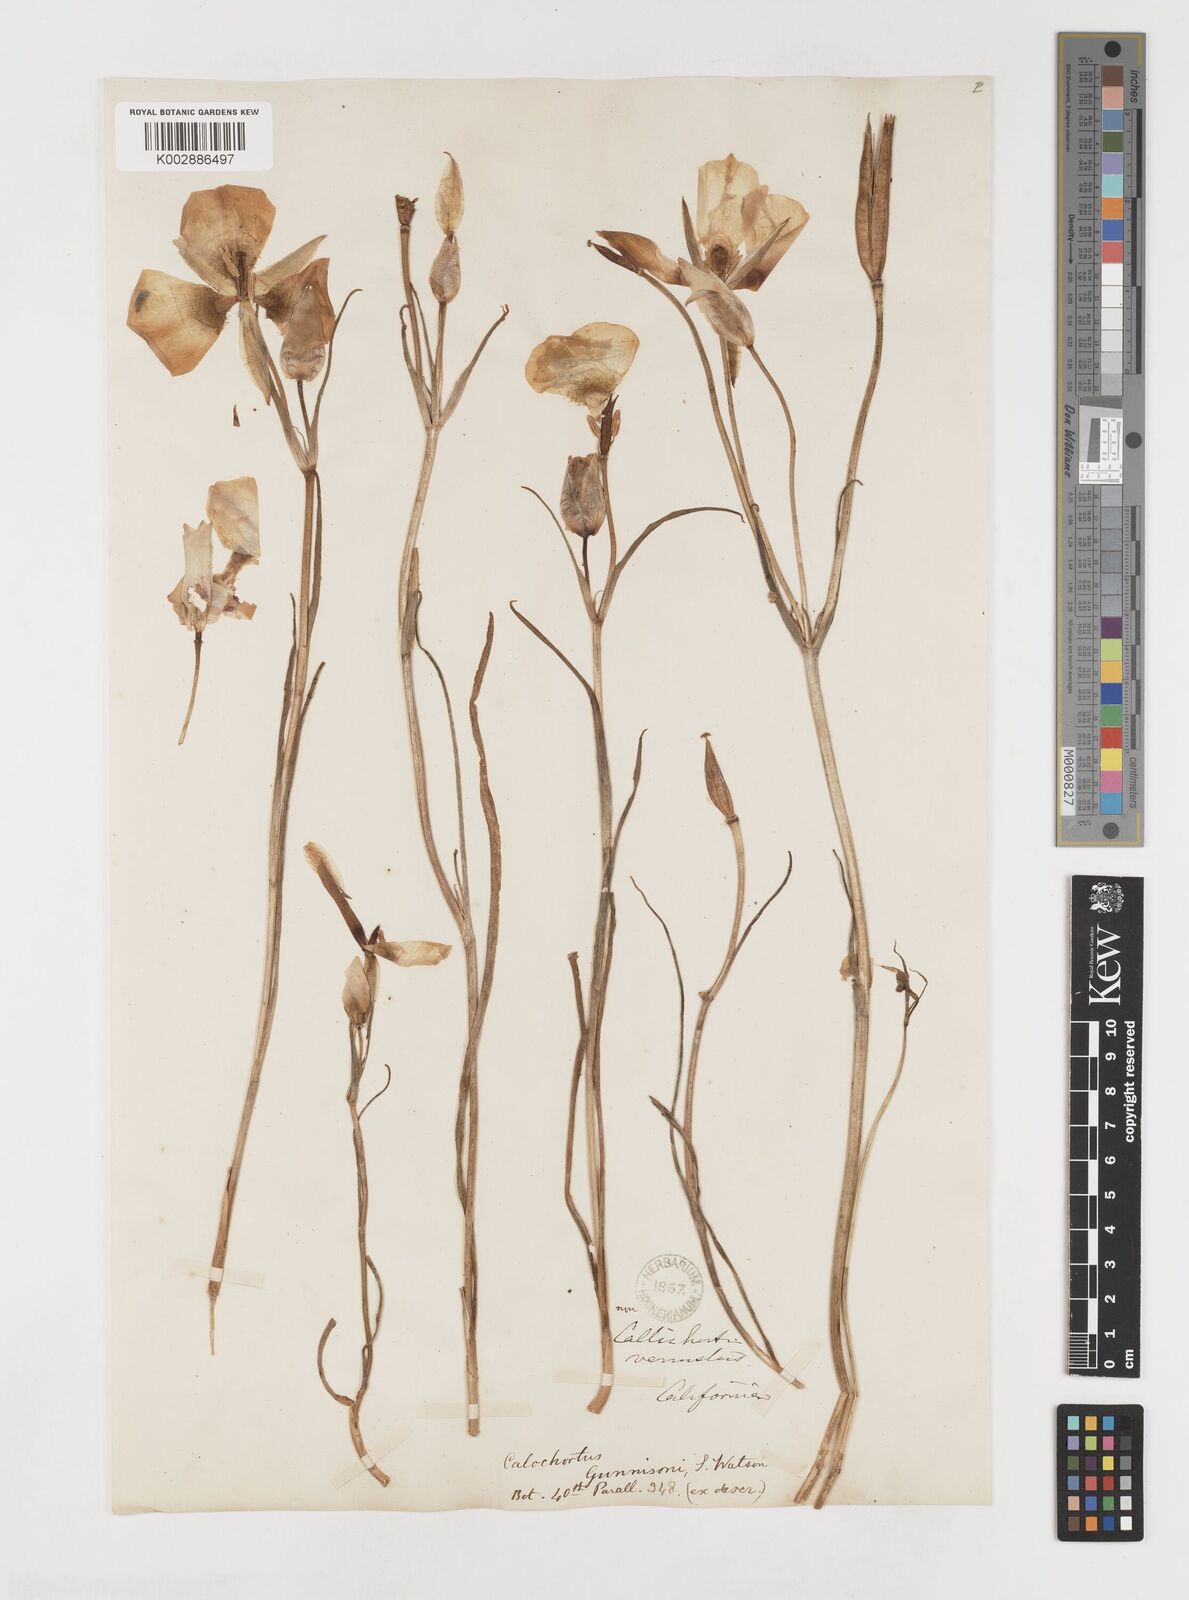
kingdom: Plantae
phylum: Tracheophyta
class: Liliopsida
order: Liliales
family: Liliaceae
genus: Calochortus
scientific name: Calochortus gunnisonii
